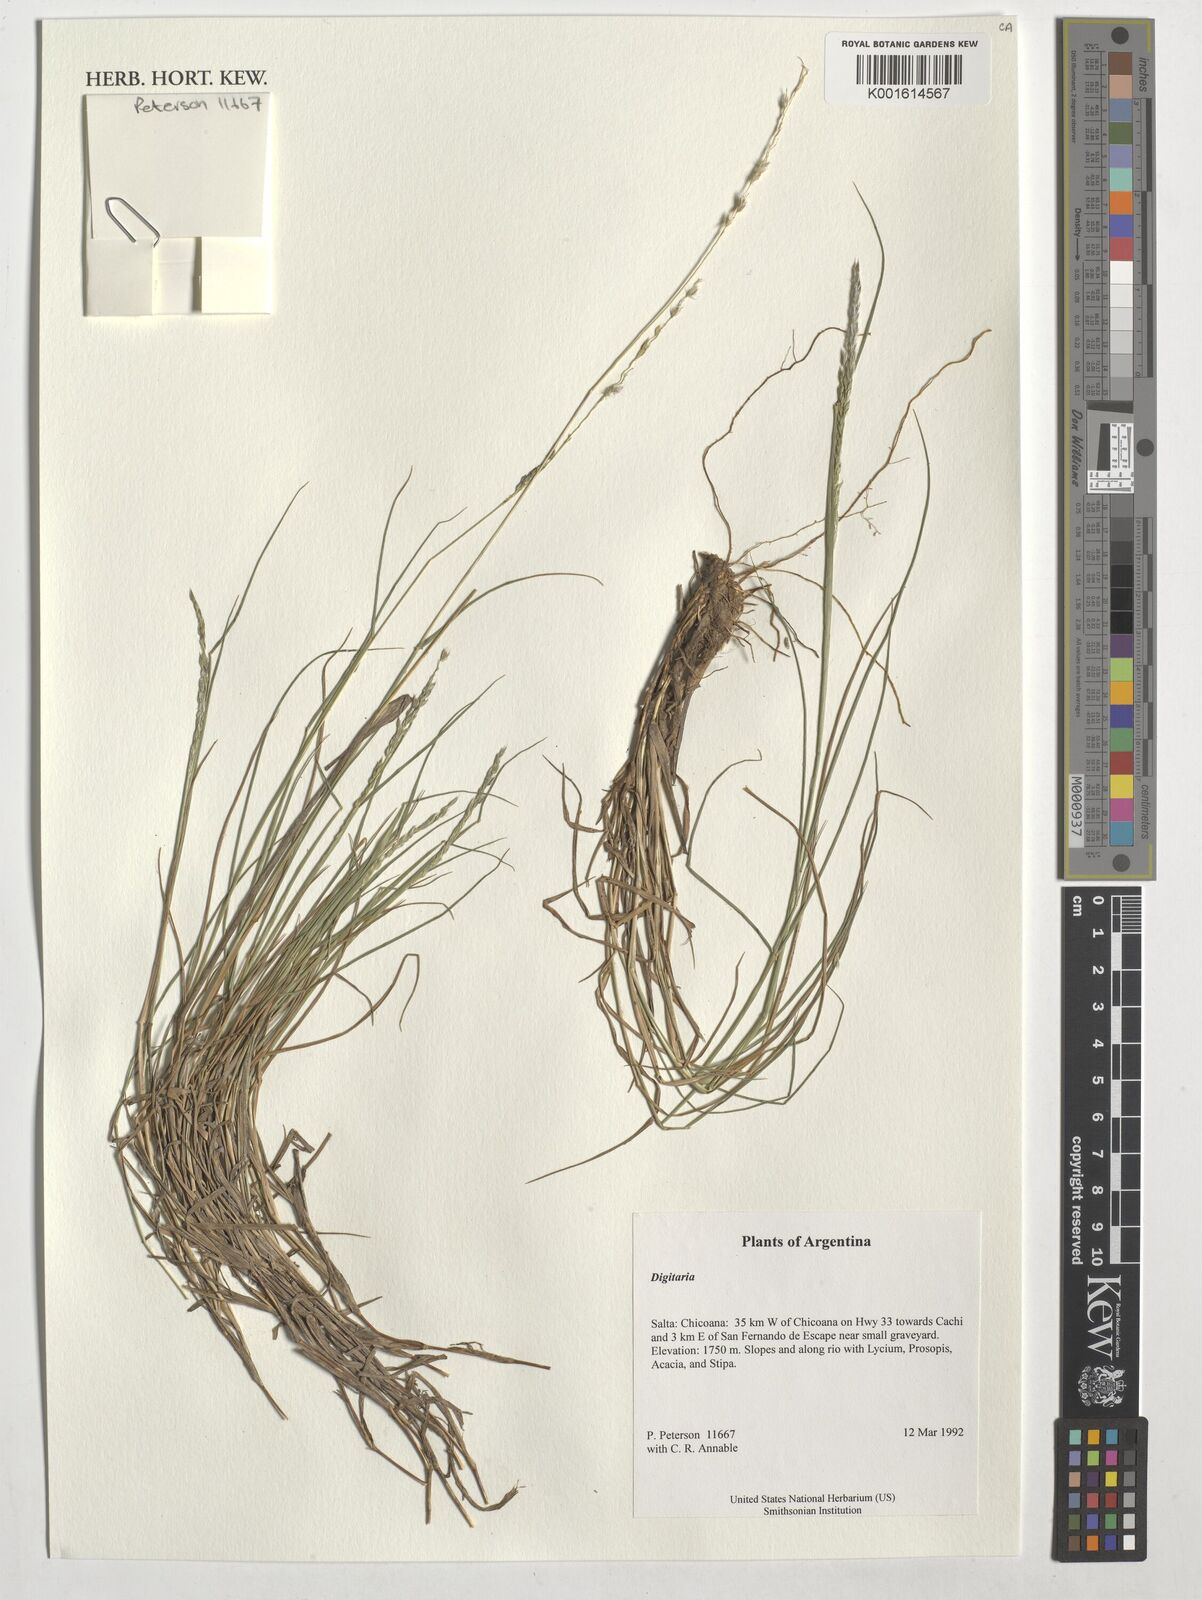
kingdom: Plantae
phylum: Tracheophyta
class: Liliopsida
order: Poales
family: Poaceae
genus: Digitaria
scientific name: Digitaria spec
